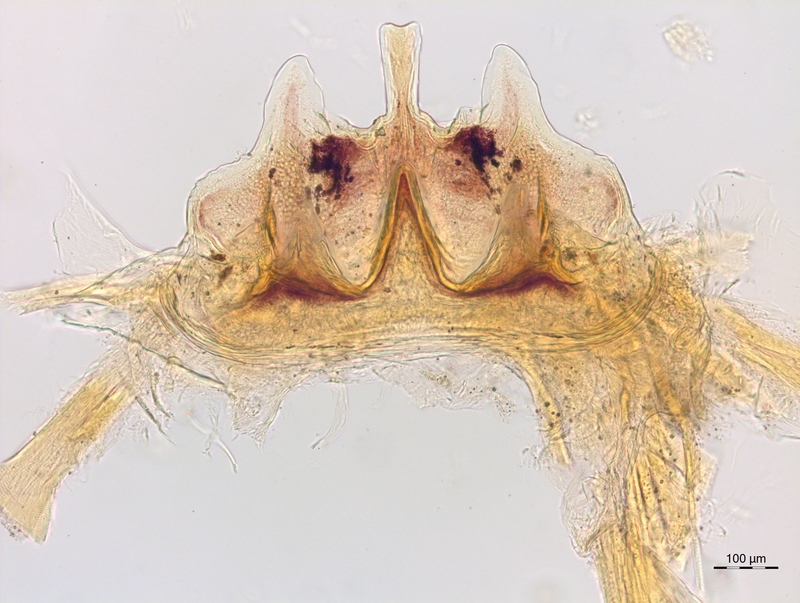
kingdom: Animalia
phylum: Arthropoda
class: Diplopoda
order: Chordeumatida
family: Craspedosomatidae
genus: Craspedosoma
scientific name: Craspedosoma alemannicum
